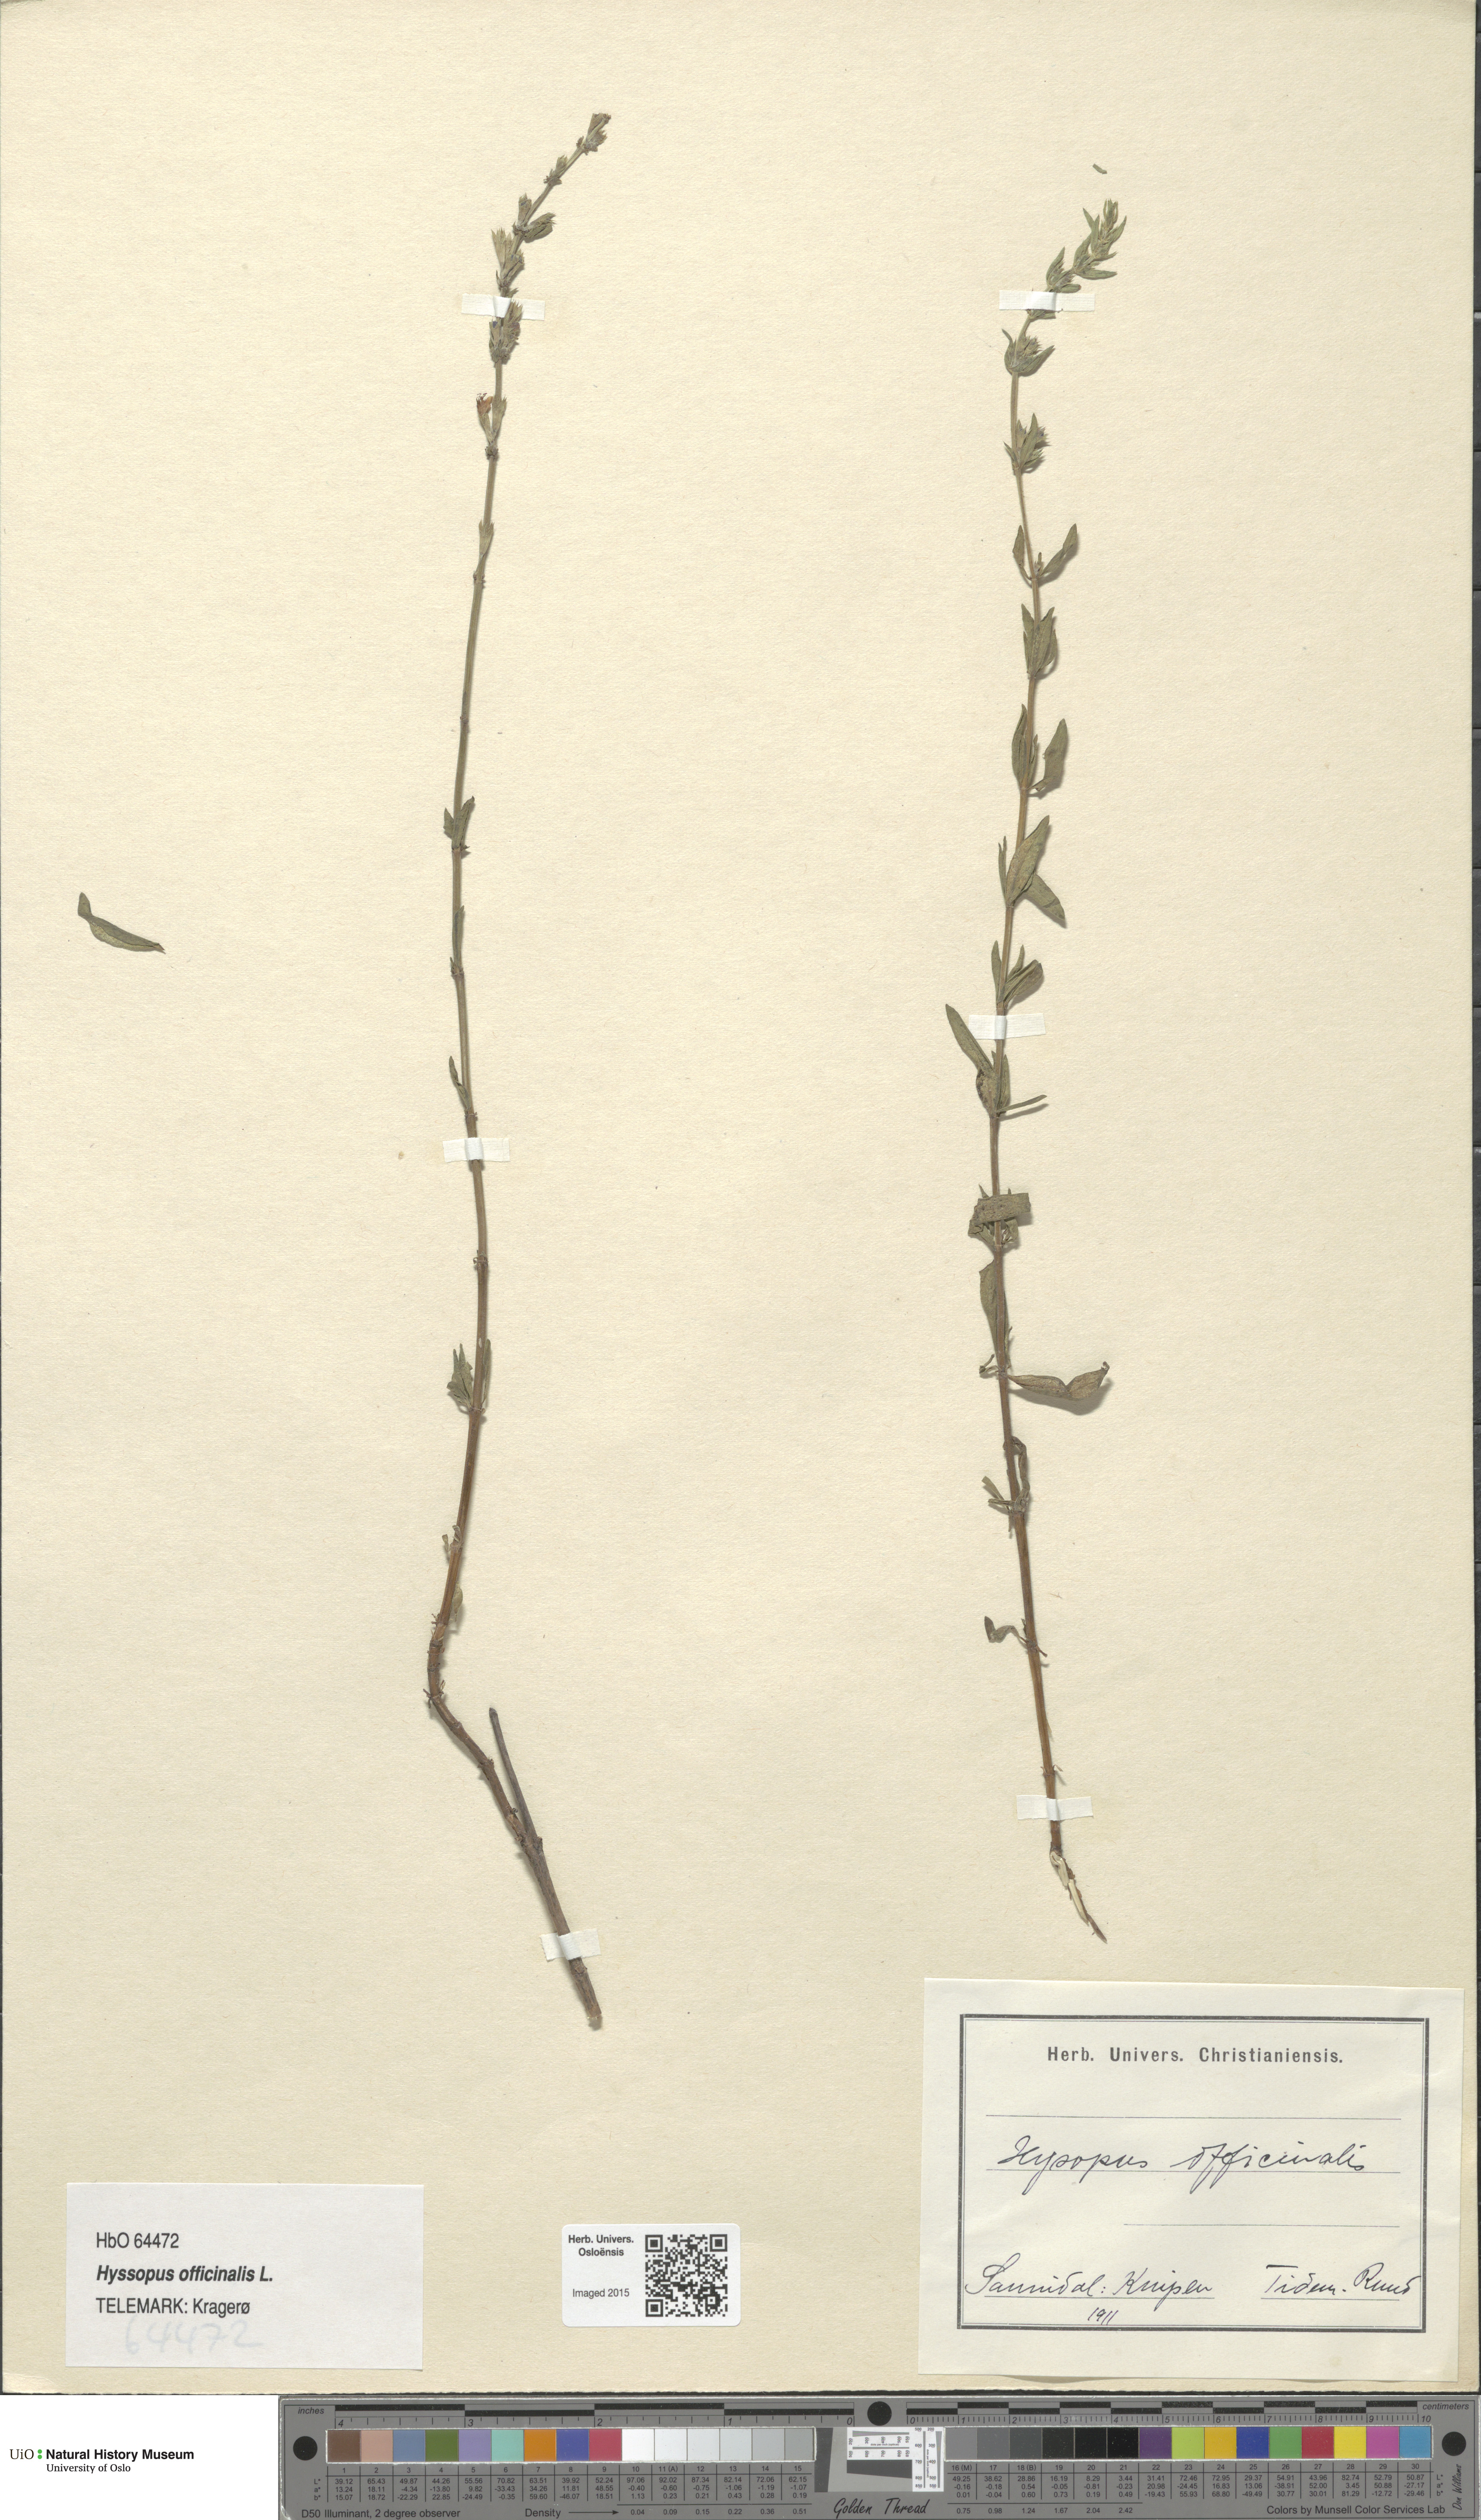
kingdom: Plantae
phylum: Tracheophyta
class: Magnoliopsida
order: Lamiales
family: Lamiaceae
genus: Hyssopus
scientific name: Hyssopus officinalis
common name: Hyssop
